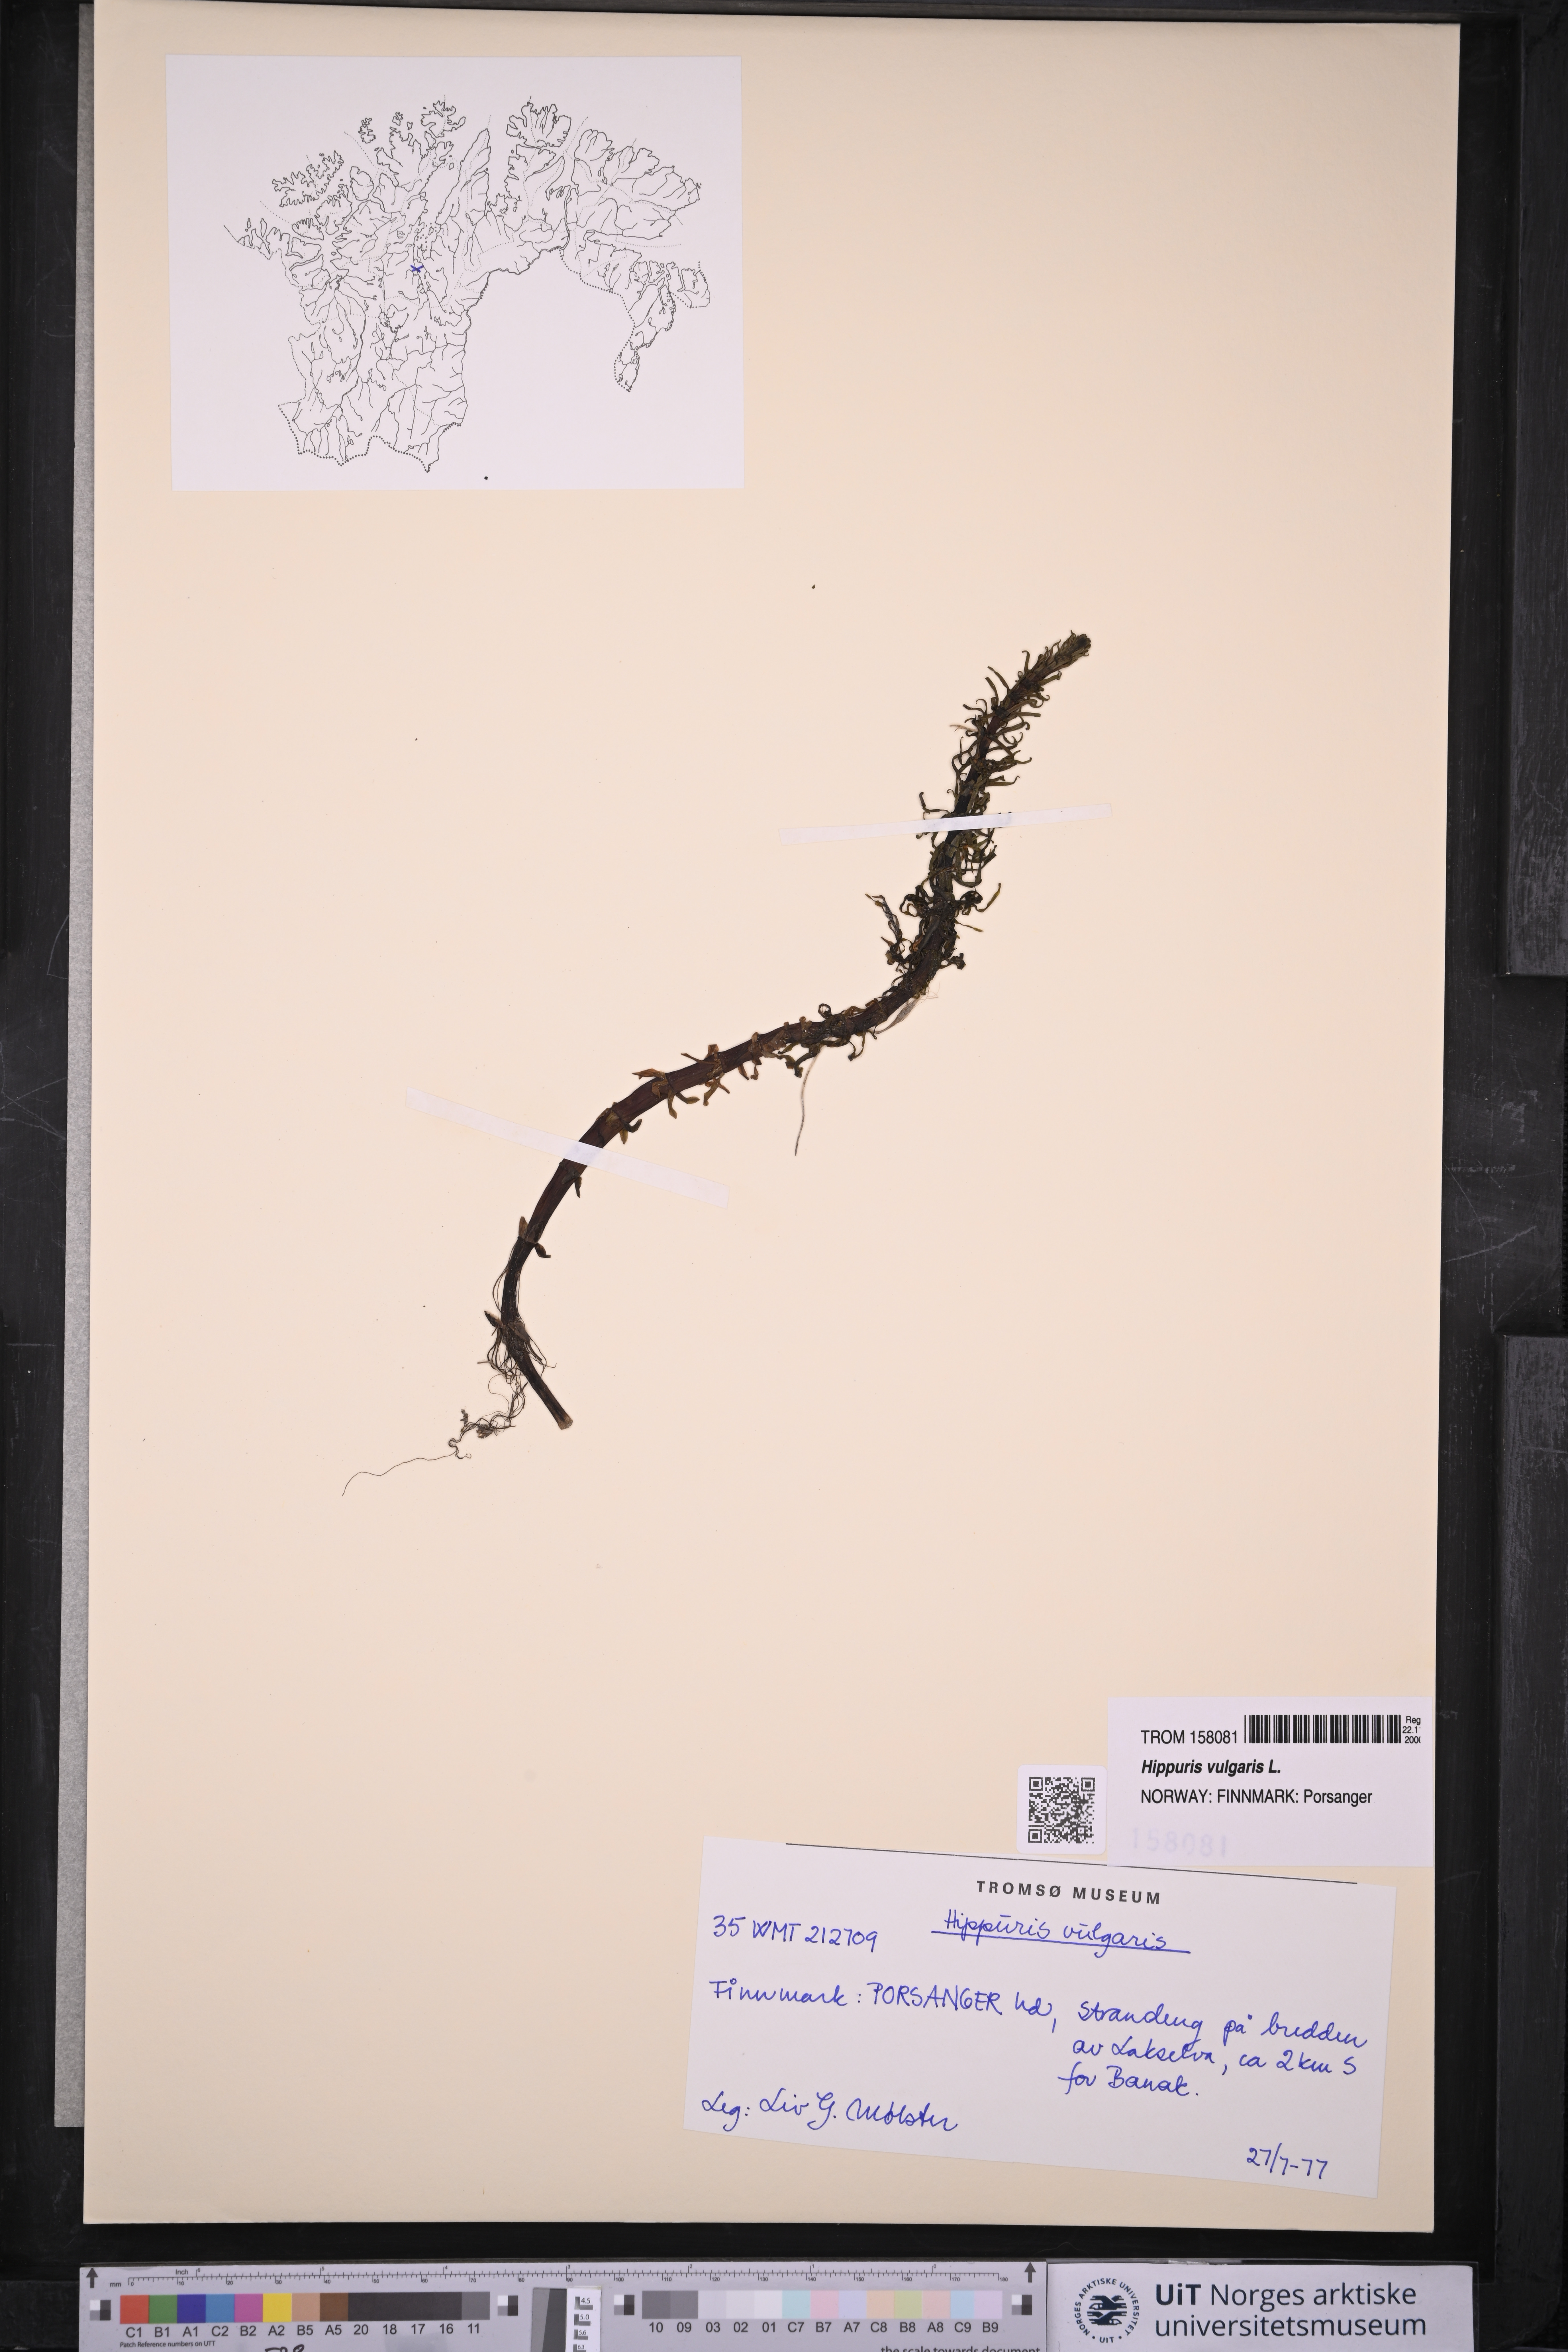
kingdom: Plantae
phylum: Tracheophyta
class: Magnoliopsida
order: Lamiales
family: Plantaginaceae
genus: Hippuris
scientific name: Hippuris vulgaris
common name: Mare's-tail
